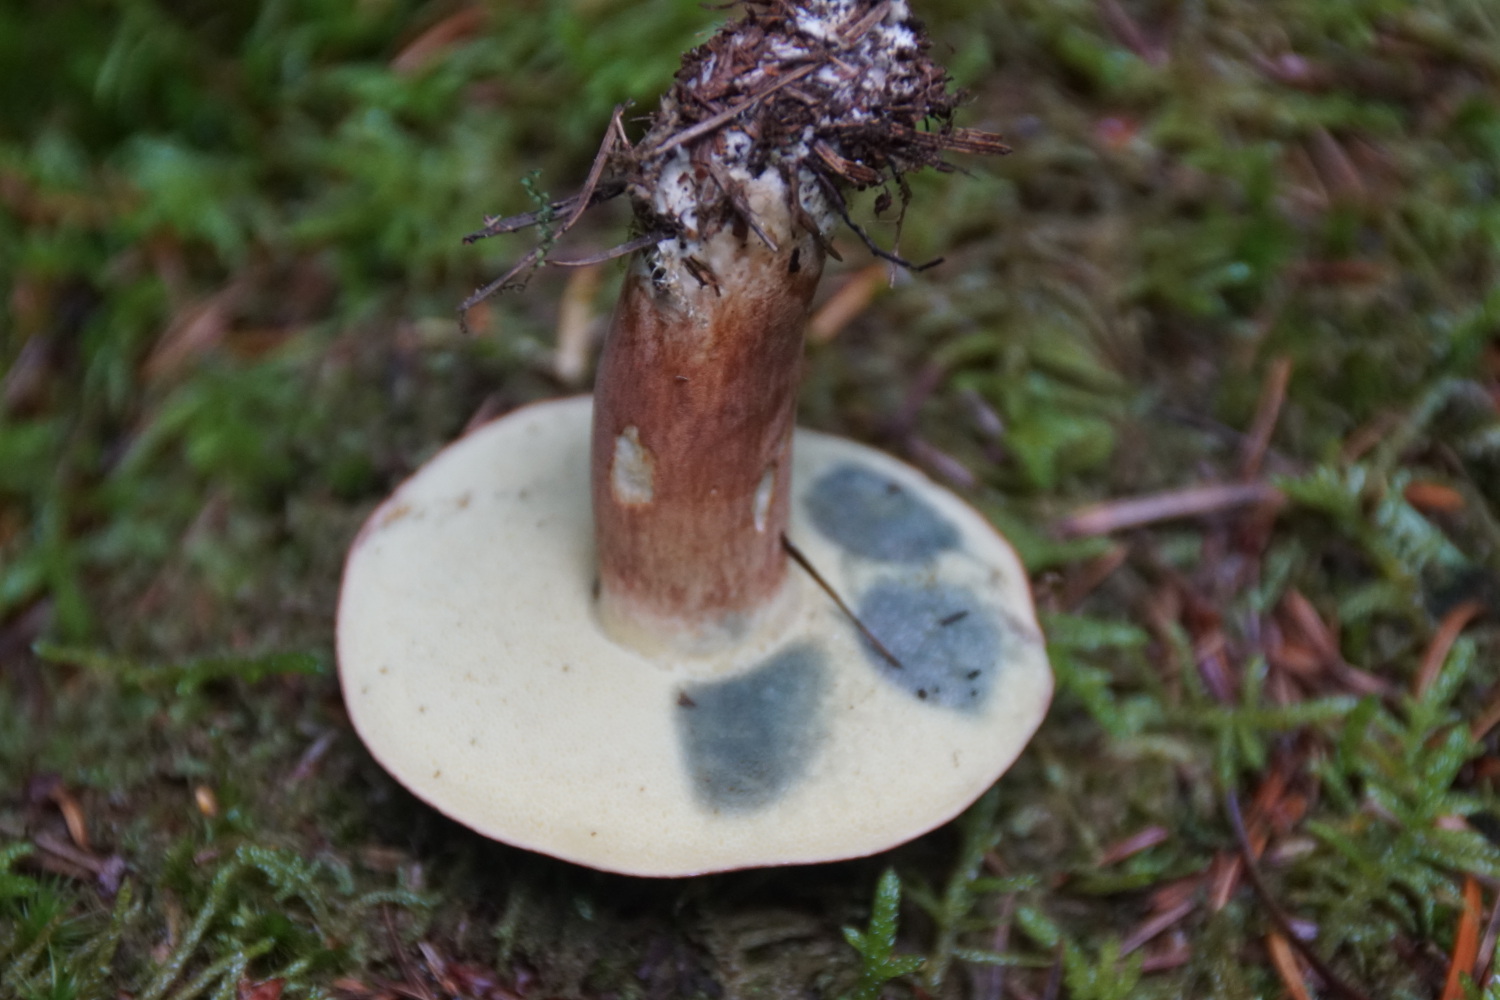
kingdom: Fungi
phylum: Basidiomycota
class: Agaricomycetes
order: Boletales
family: Boletaceae
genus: Imleria
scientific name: Imleria badia
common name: brunstokket rørhat
